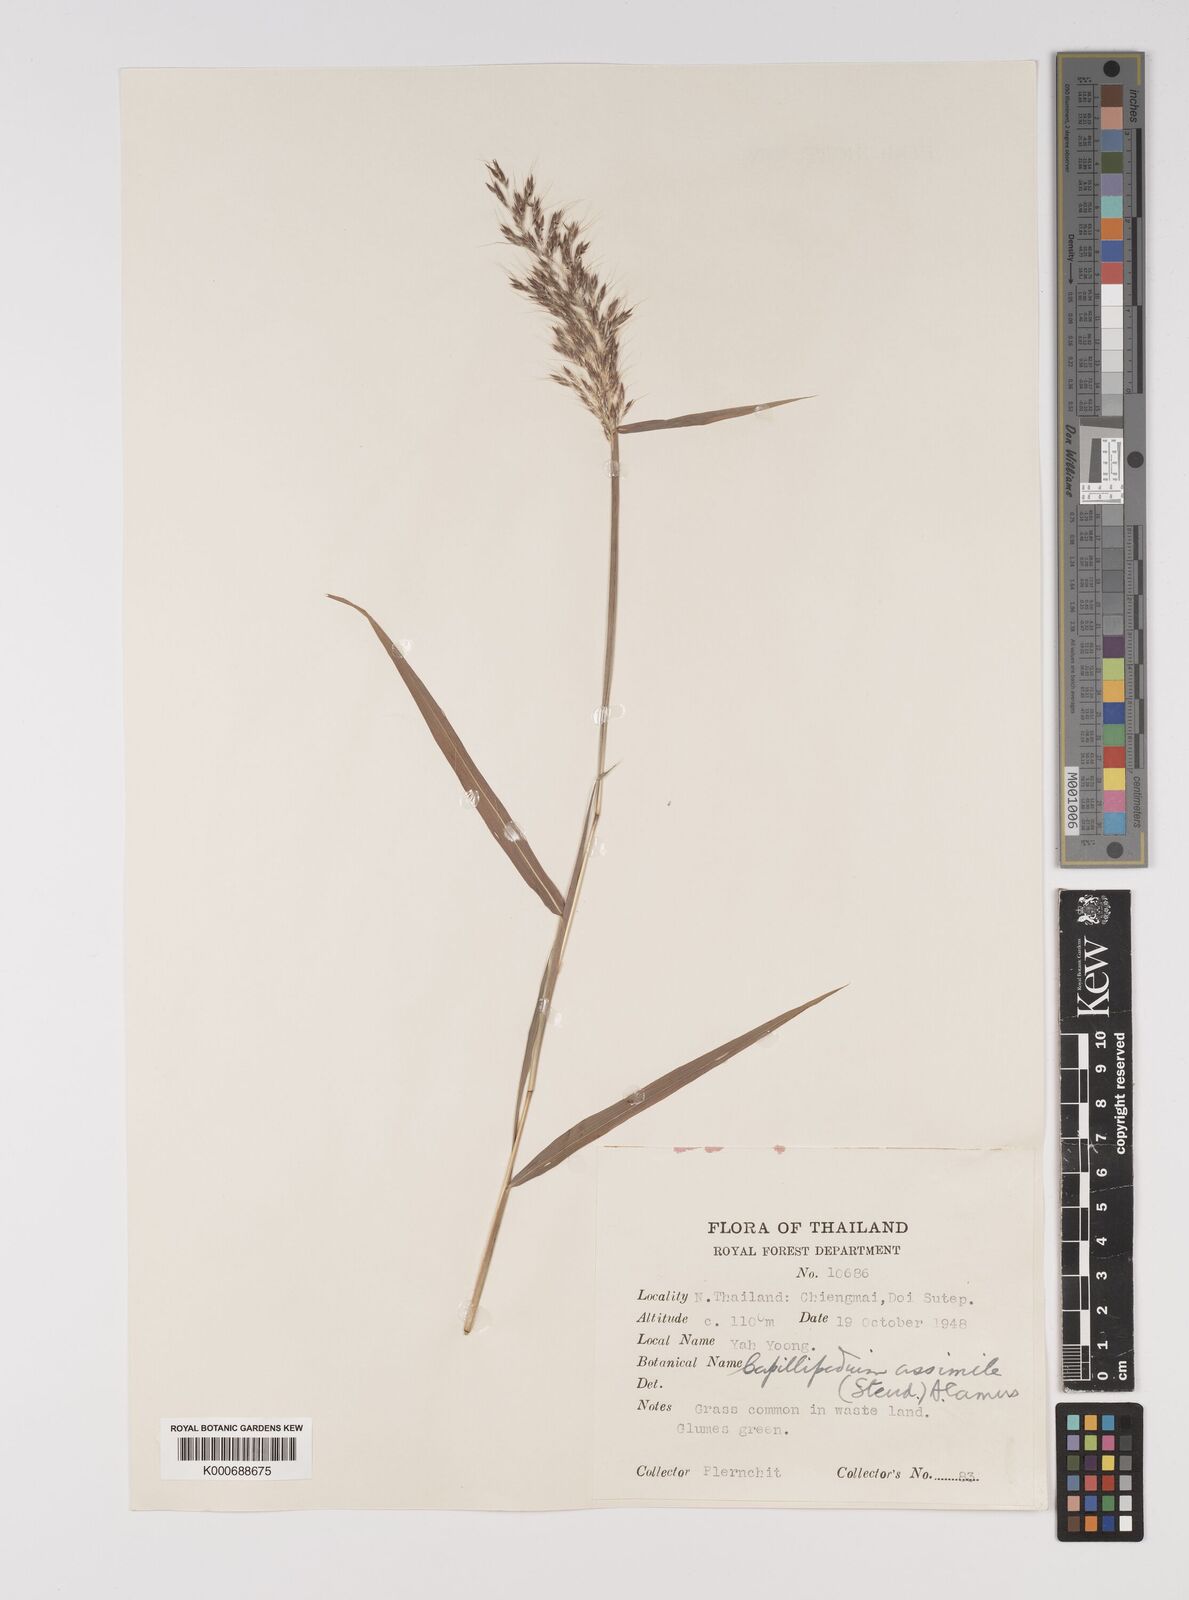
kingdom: Plantae
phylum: Tracheophyta
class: Liliopsida
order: Poales
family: Poaceae
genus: Capillipedium
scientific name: Capillipedium assimile
